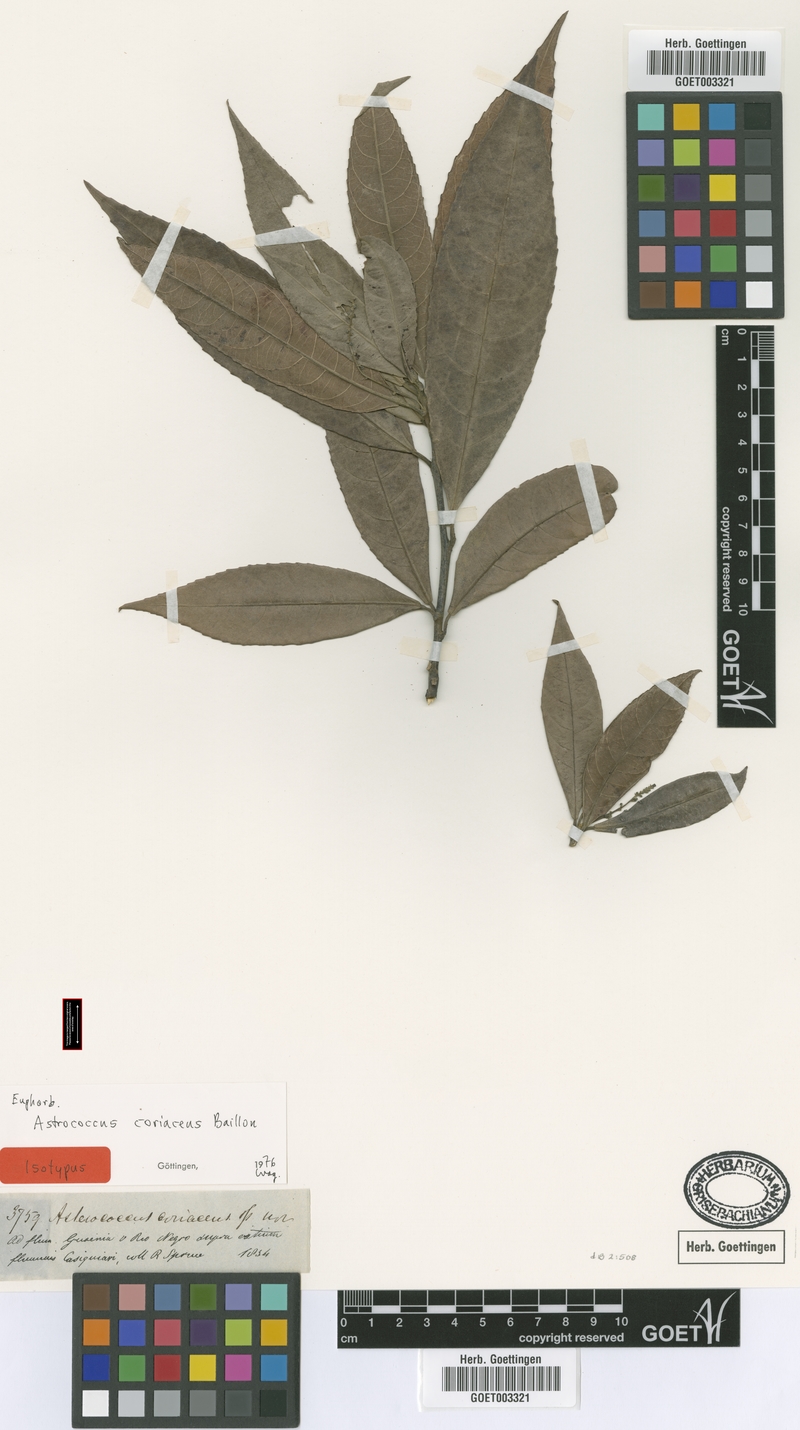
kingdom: Plantae
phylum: Tracheophyta
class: Magnoliopsida
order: Malpighiales
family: Euphorbiaceae
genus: Haematostemon
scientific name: Haematostemon coriaceus
